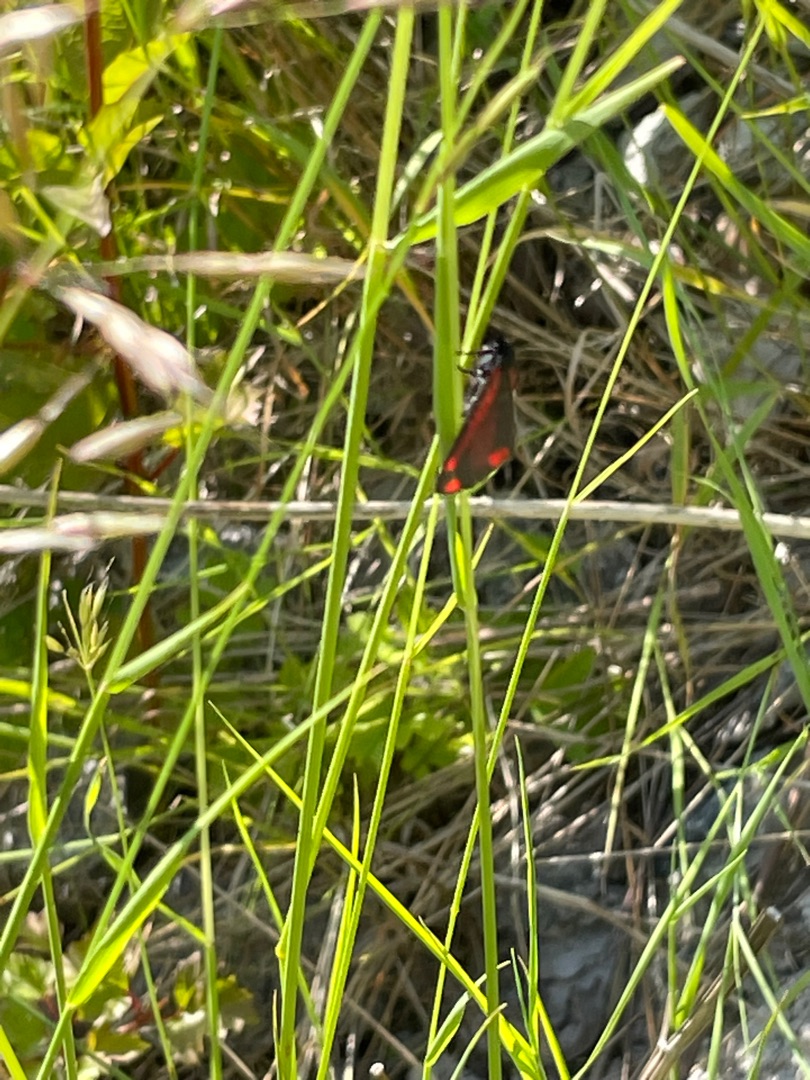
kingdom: Animalia
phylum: Arthropoda
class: Insecta
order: Lepidoptera
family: Erebidae
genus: Tyria
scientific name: Tyria jacobaeae
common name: Blodplet
